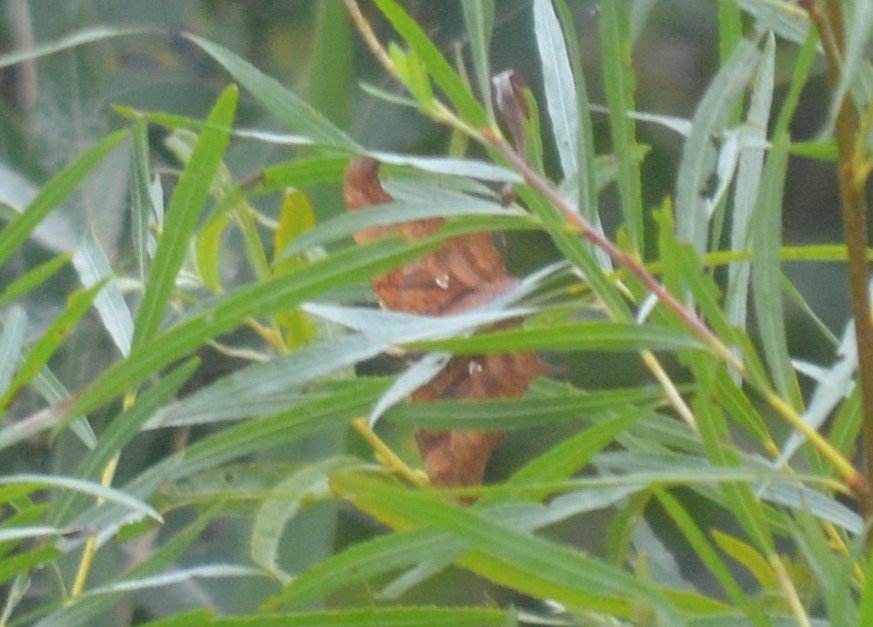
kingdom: Animalia
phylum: Arthropoda
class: Insecta
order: Lepidoptera
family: Nymphalidae
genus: Polygonia
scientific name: Polygonia interrogationis
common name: Question Mark
